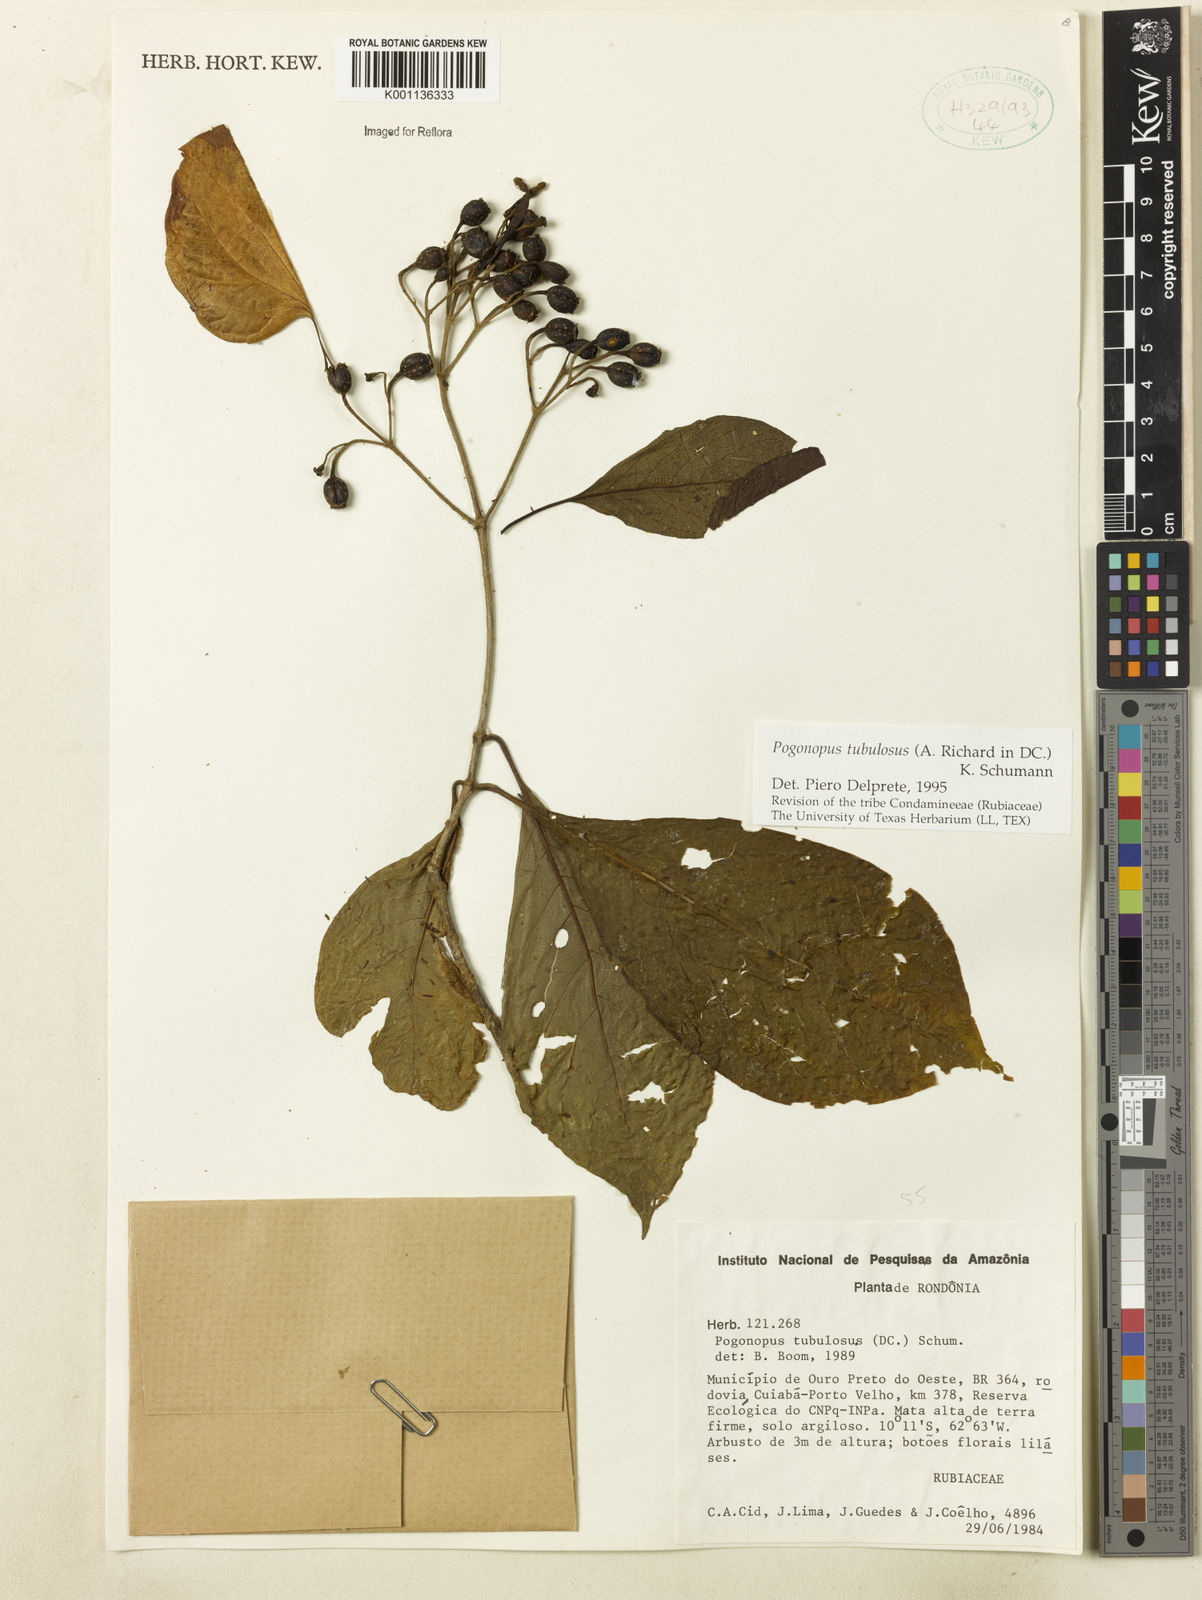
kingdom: Plantae
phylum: Tracheophyta
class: Magnoliopsida
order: Gentianales
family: Rubiaceae
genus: Pogonopus
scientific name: Pogonopus tubulosus
